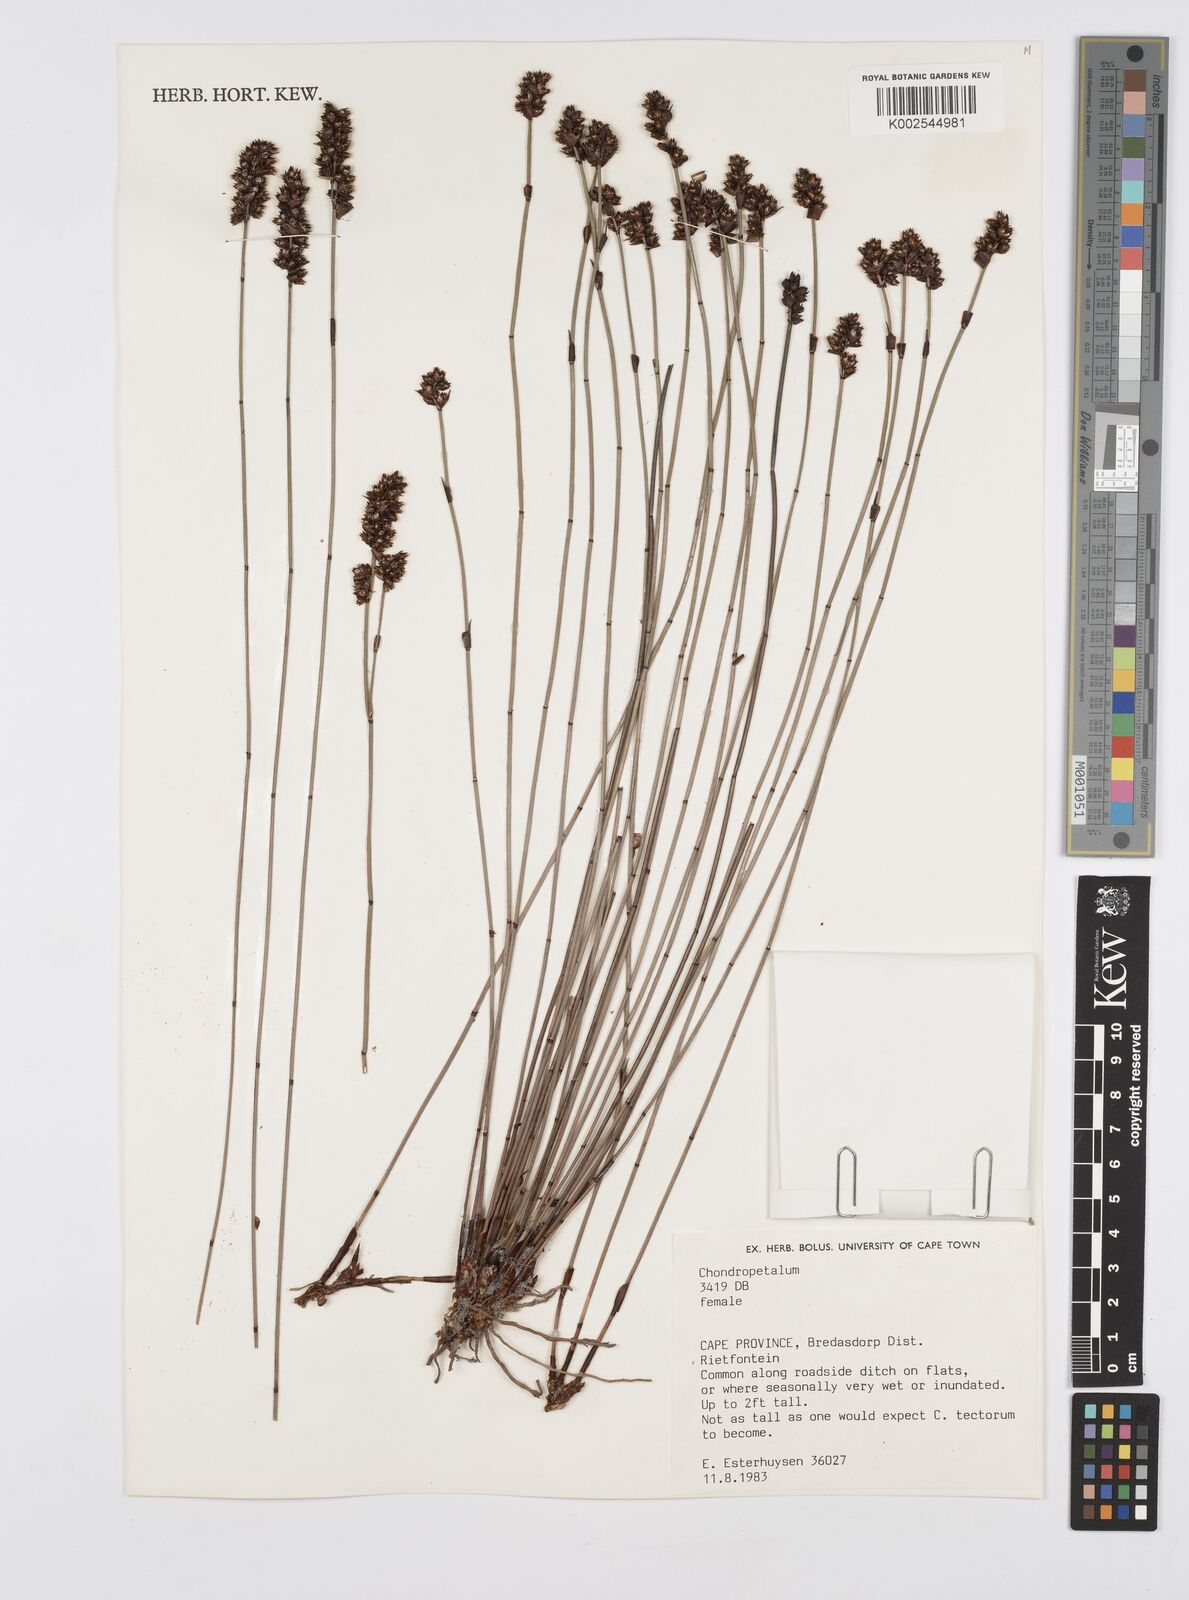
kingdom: Plantae
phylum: Tracheophyta
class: Liliopsida
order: Poales
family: Restionaceae
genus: Elegia
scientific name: Elegia
